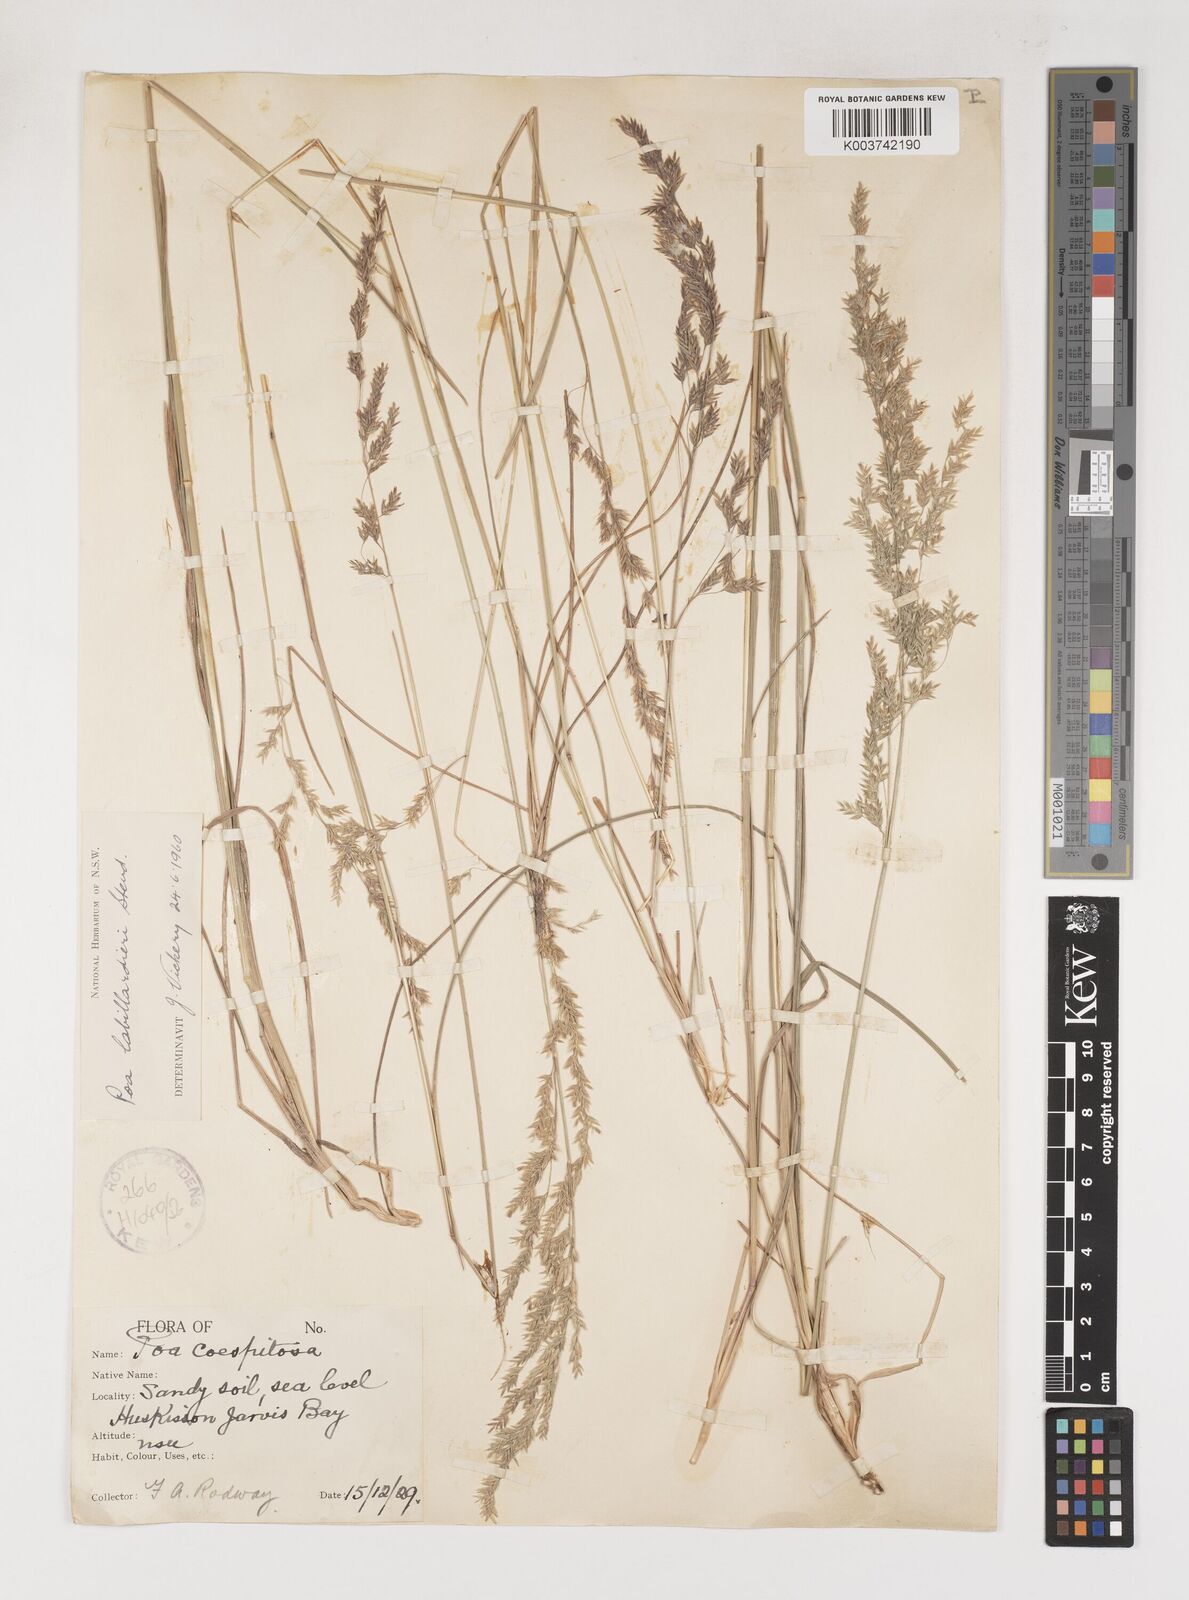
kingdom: Plantae
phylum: Tracheophyta
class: Liliopsida
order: Poales
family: Poaceae
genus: Poa
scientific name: Poa labillardierei
